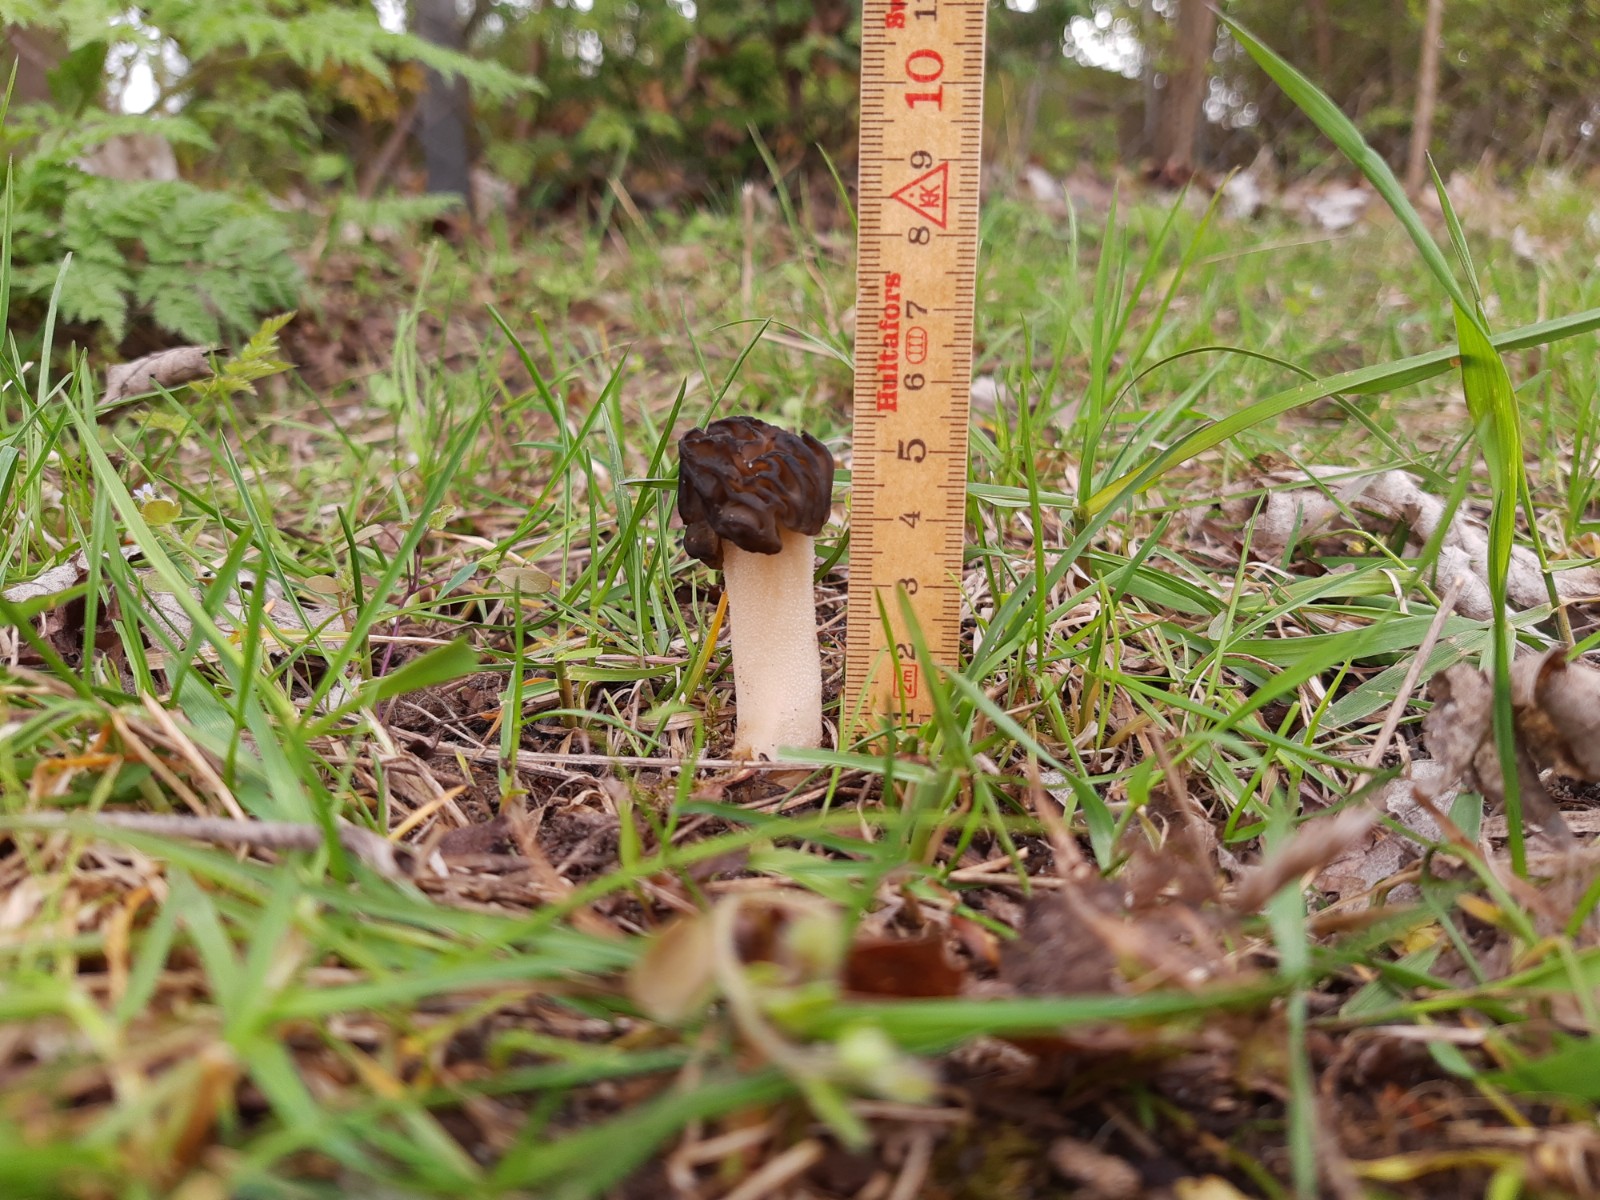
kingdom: Fungi
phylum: Ascomycota
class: Pezizomycetes
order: Pezizales
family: Morchellaceae
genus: Morchella
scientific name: Morchella semilibera
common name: hætte-morkel
